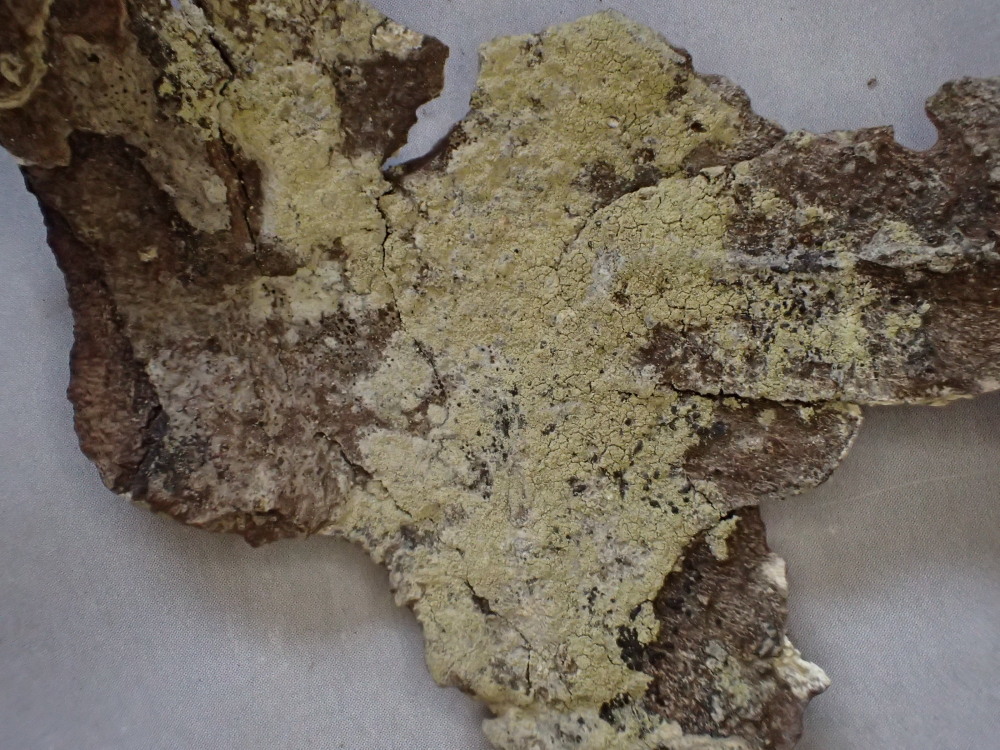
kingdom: Fungi
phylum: Ascomycota
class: Lecanoromycetes
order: Lecanorales
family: Lecanoraceae
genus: Pyrrhospora
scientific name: Pyrrhospora quernea
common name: almindelig rødskivelav
